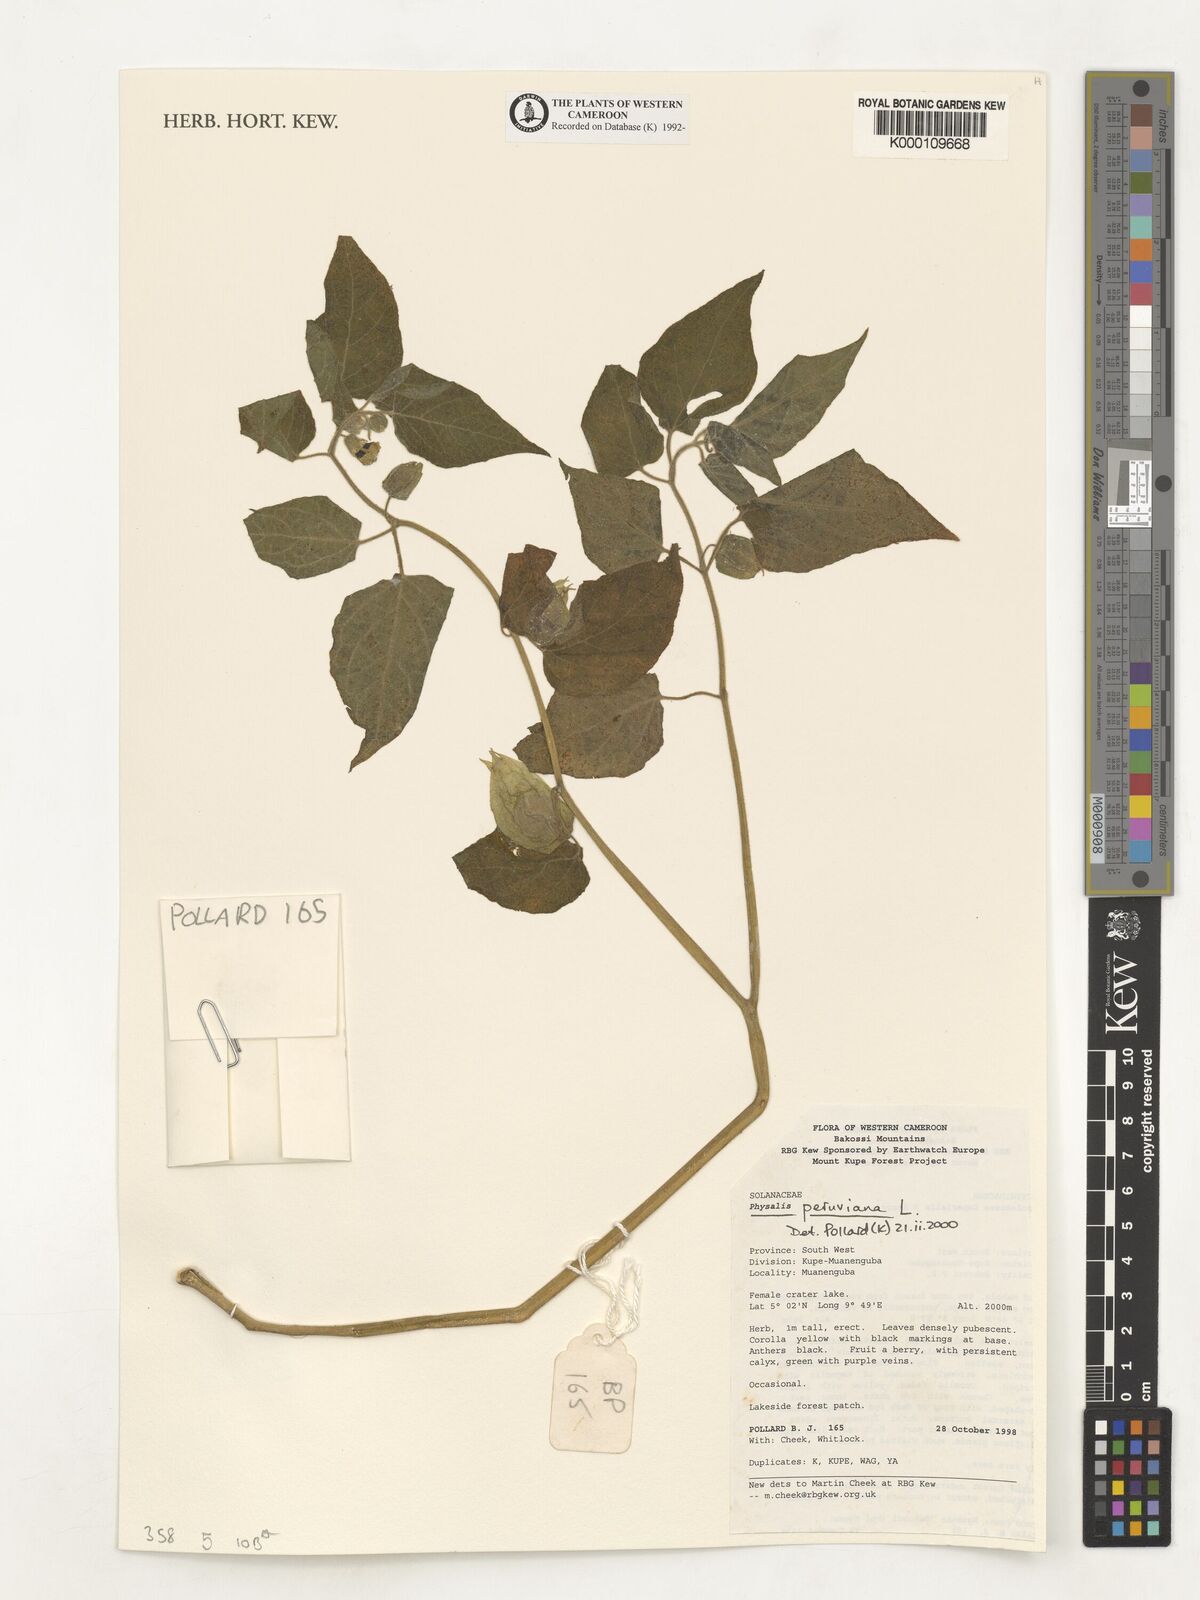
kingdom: Plantae
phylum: Tracheophyta
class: Magnoliopsida
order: Solanales
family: Solanaceae
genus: Physalis
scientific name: Physalis peruviana
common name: Cape-gooseberry
